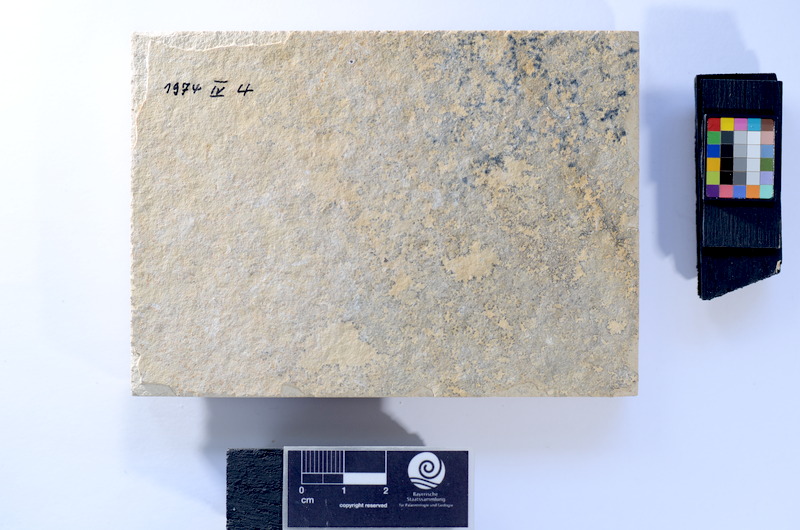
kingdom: Animalia
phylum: Chordata
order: Salmoniformes
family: Orthogonikleithridae
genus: Leptolepides
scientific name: Leptolepides sprattiformis
